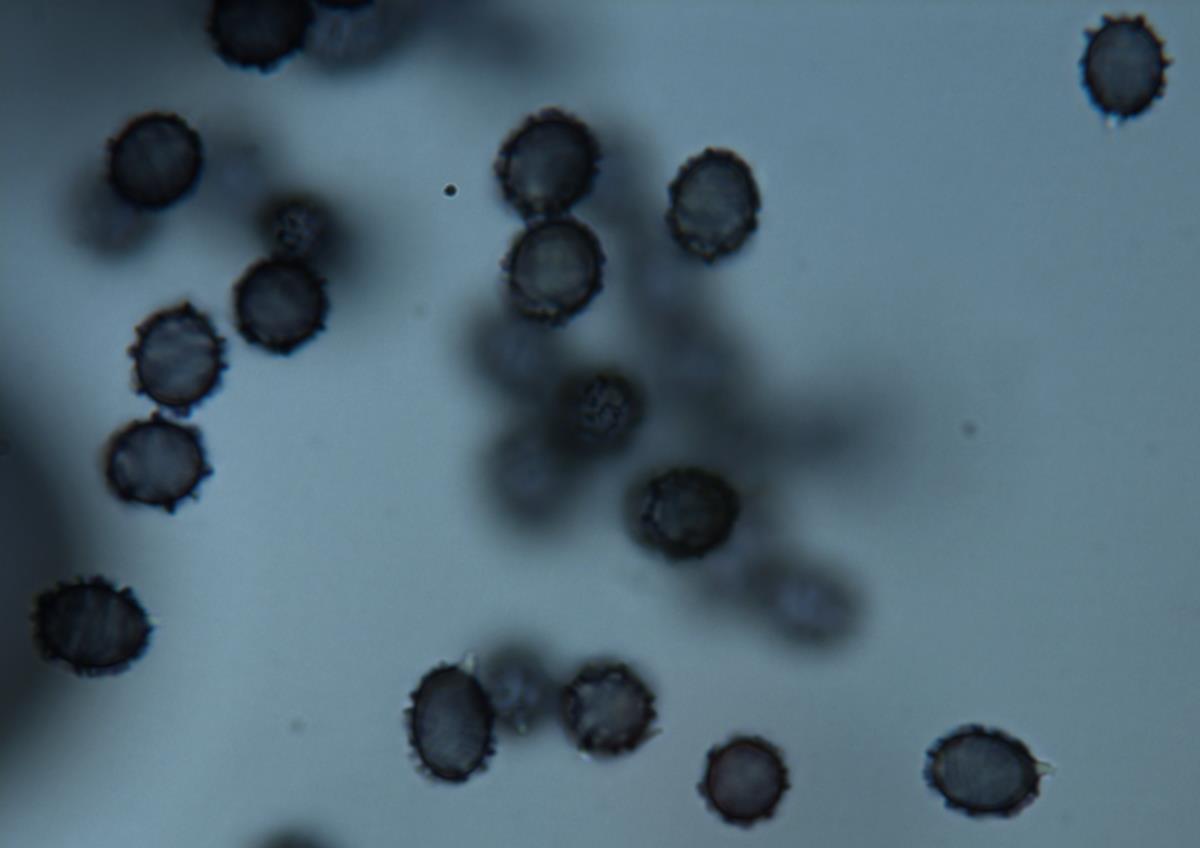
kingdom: Fungi
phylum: Basidiomycota
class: Agaricomycetes
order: Russulales
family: Russulaceae
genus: Zelleromyces
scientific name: Zelleromyces
